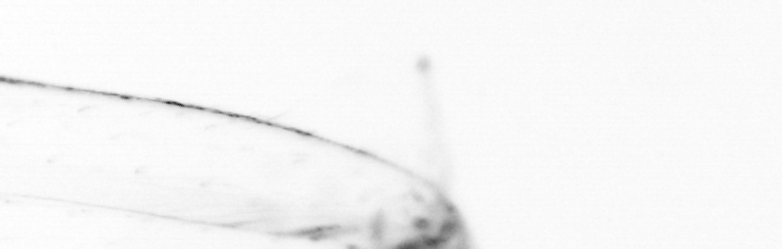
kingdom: Animalia
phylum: Chaetognatha
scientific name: Chaetognatha
